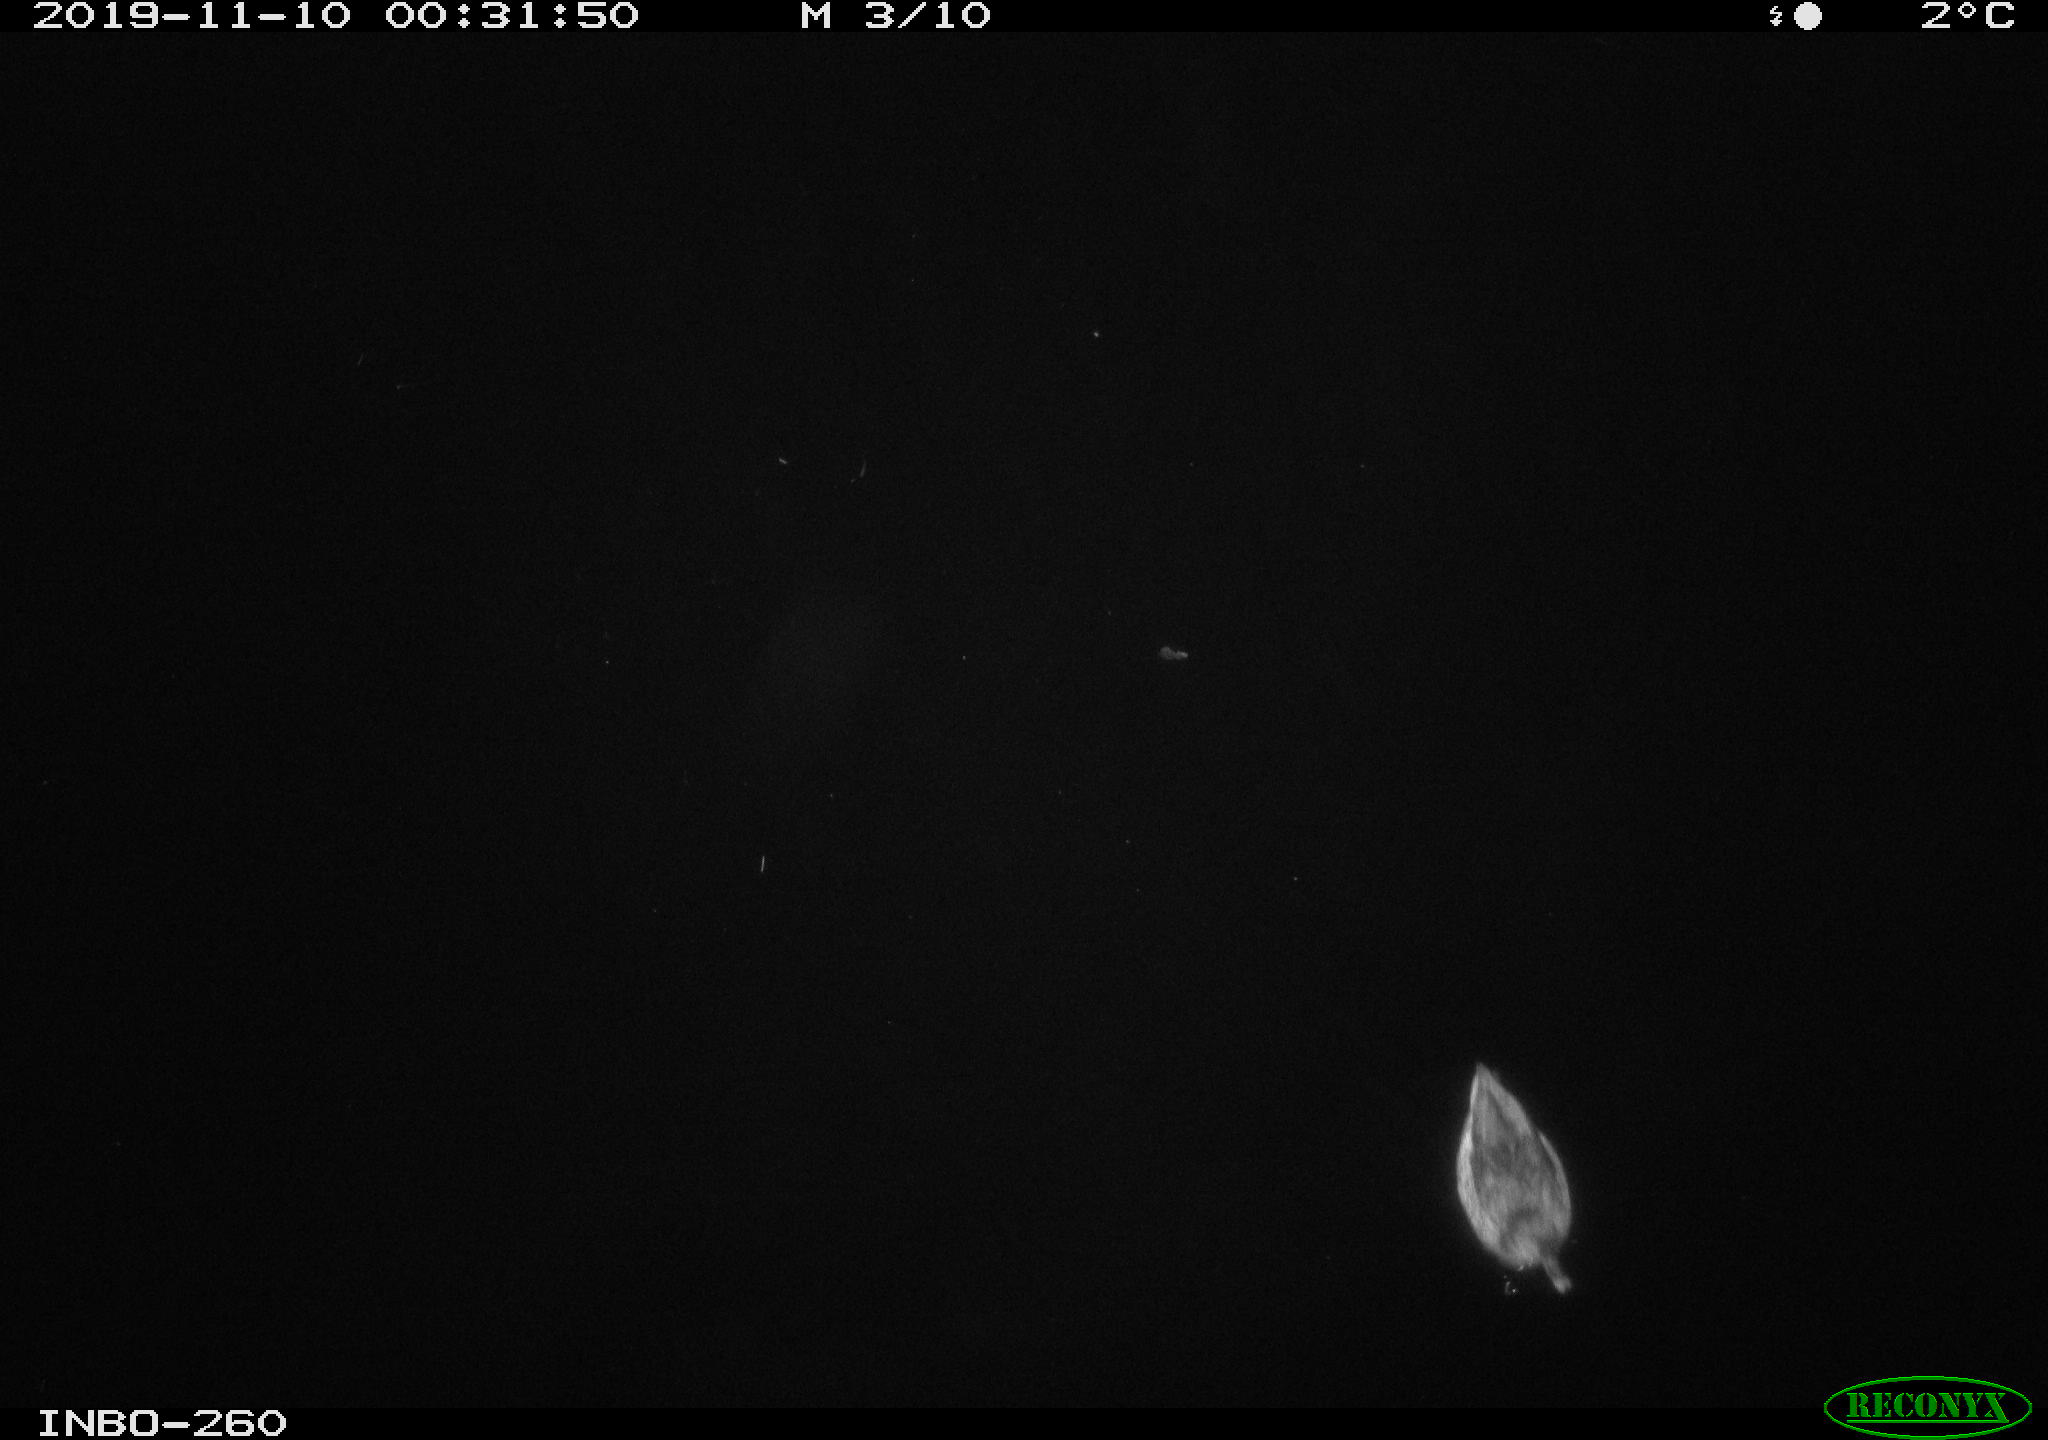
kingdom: Animalia
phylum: Chordata
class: Aves
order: Anseriformes
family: Anatidae
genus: Anas
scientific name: Anas platyrhynchos
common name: Mallard
